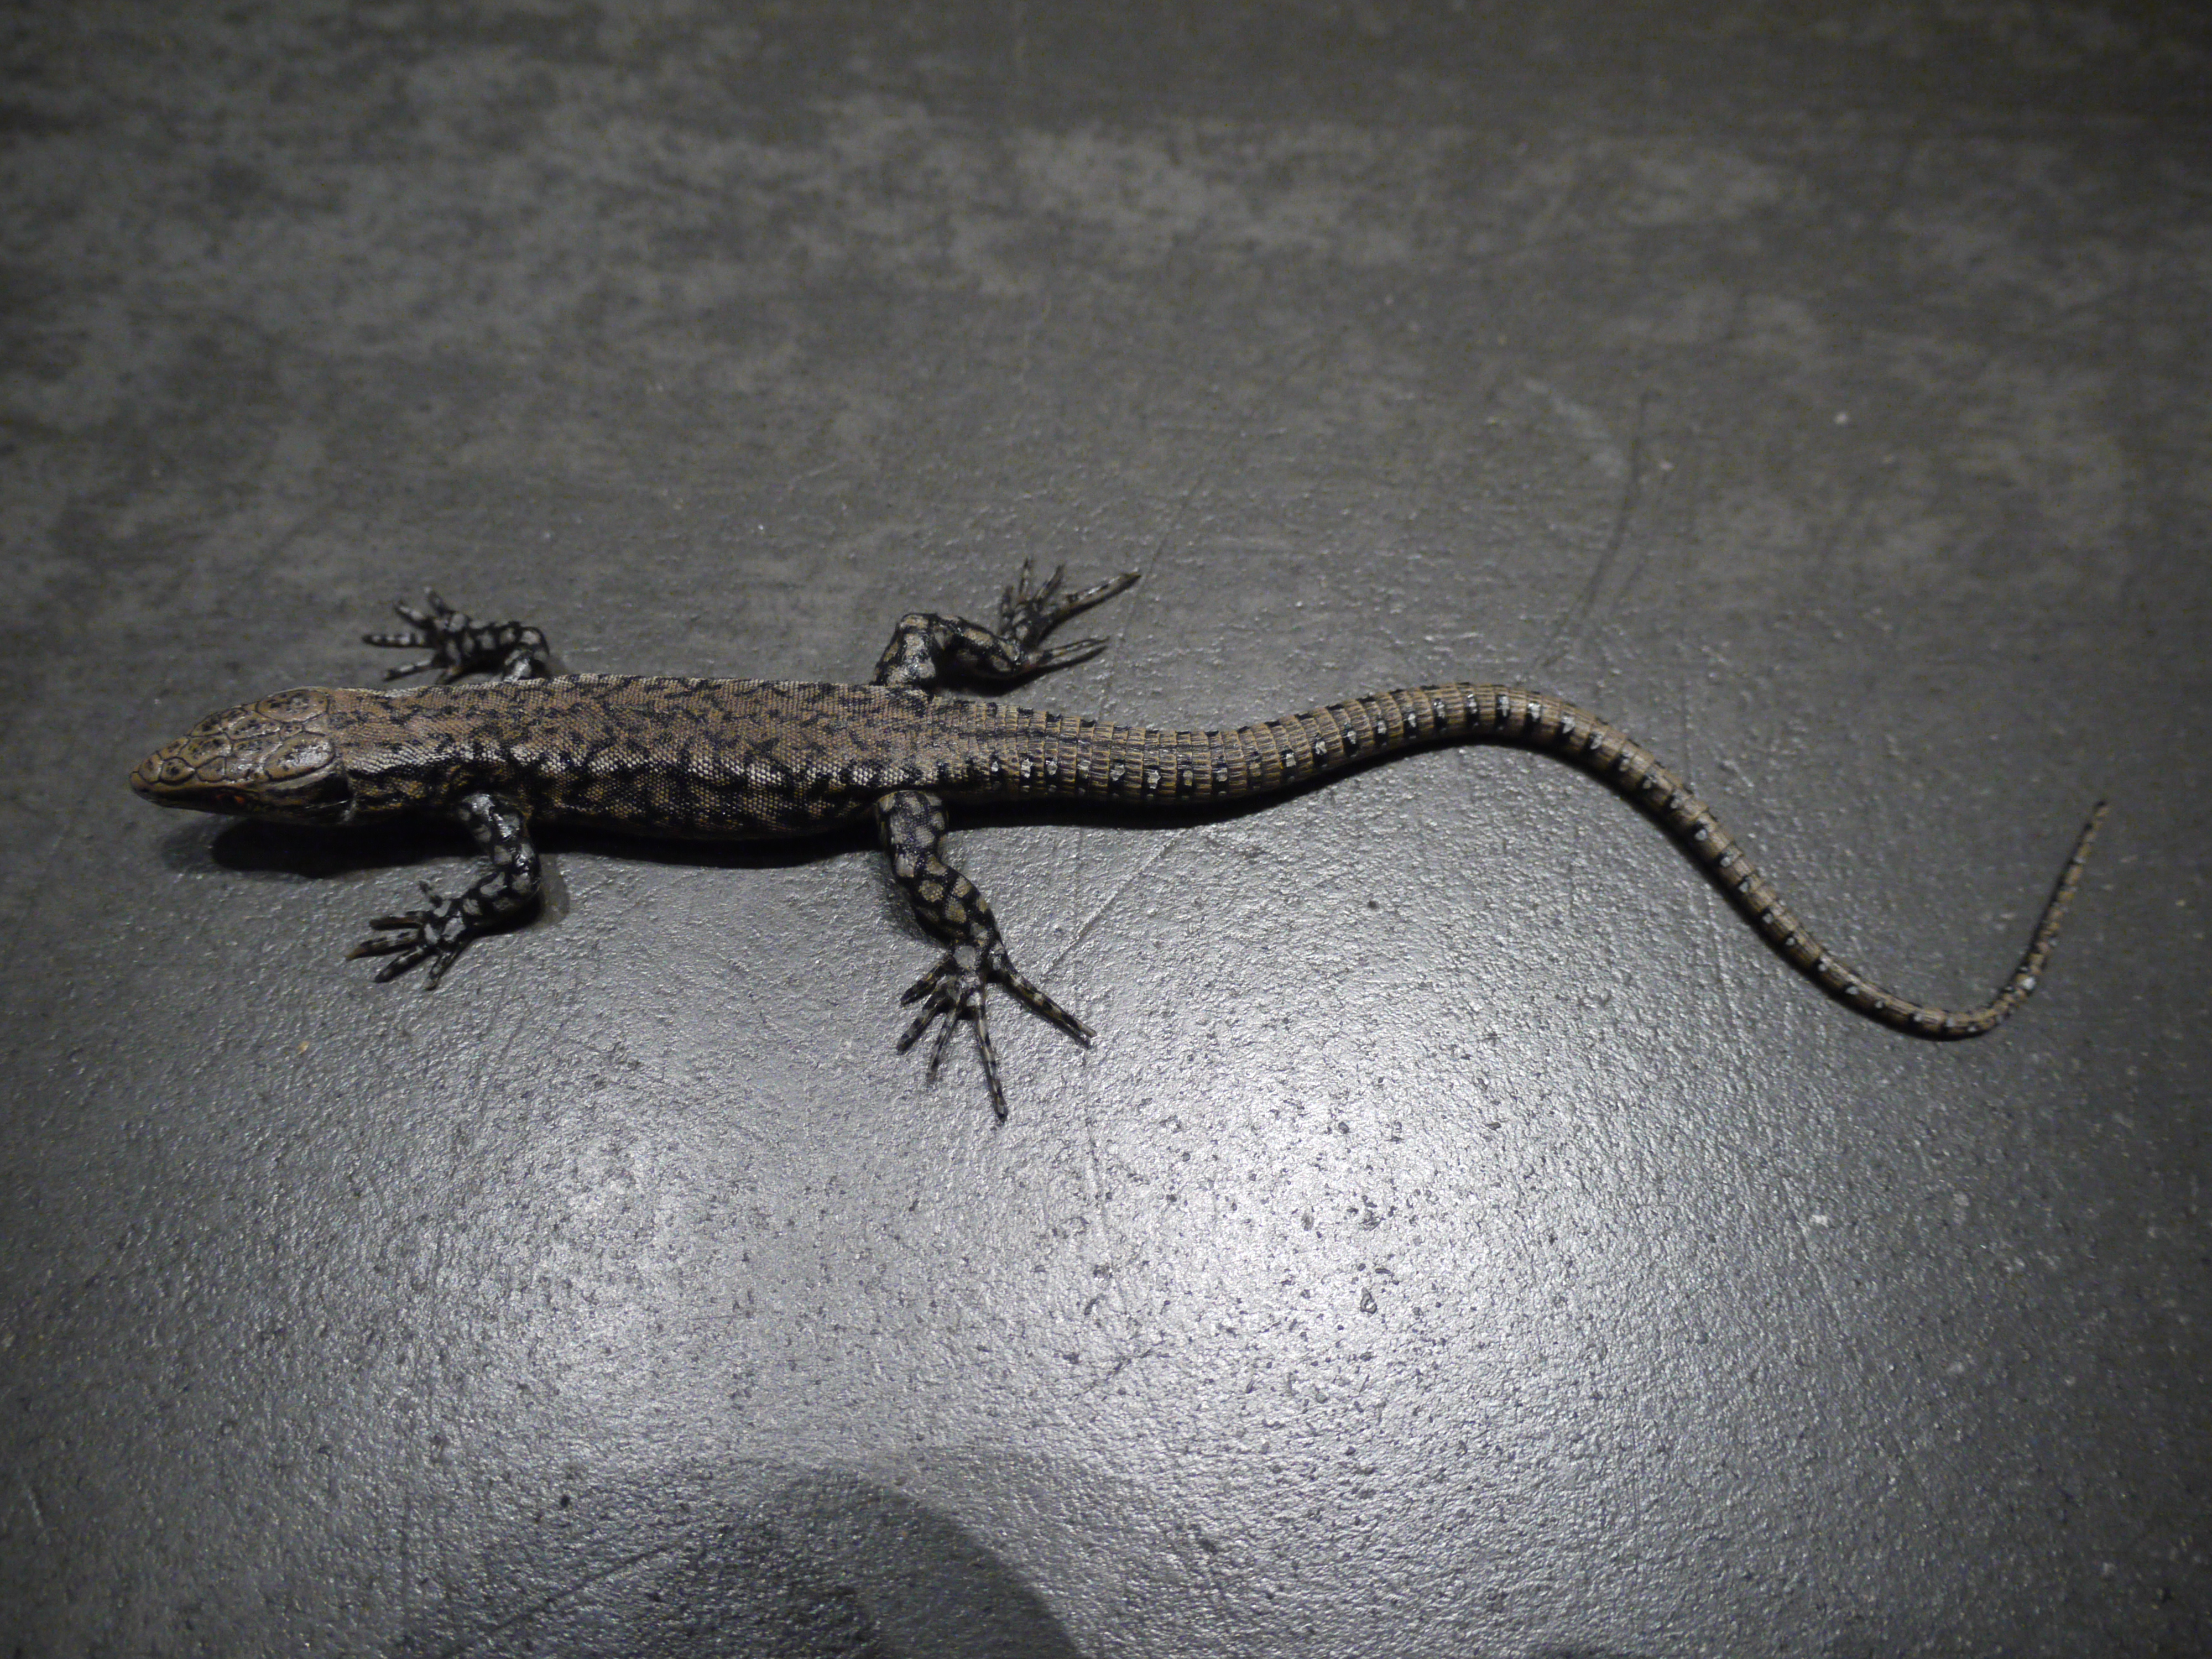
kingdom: Animalia
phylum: Chordata
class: Squamata
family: Lacertidae
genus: Podarcis
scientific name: Podarcis muralis
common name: Common wall lizard
